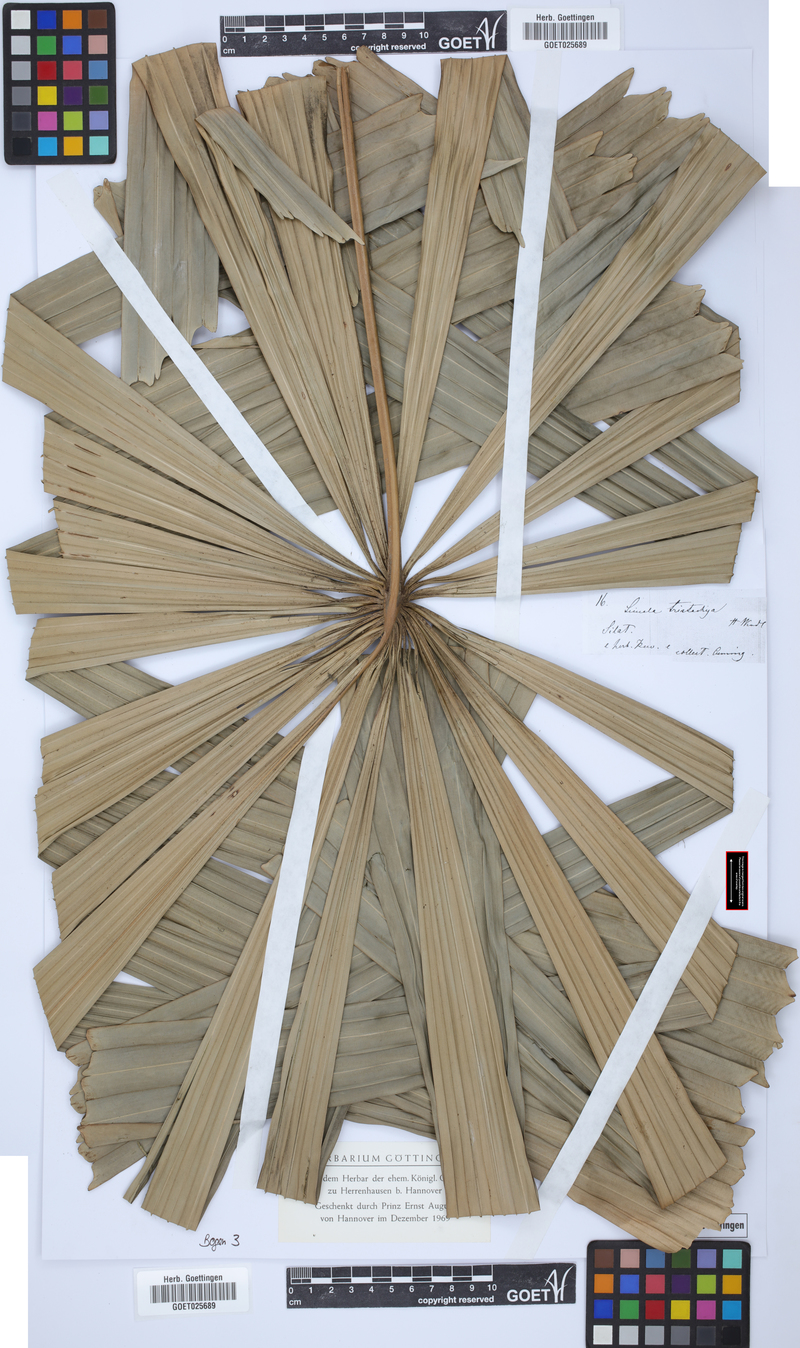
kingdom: Plantae
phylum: Tracheophyta
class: Liliopsida
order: Arecales
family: Arecaceae
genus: Licuala
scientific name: Licuala
